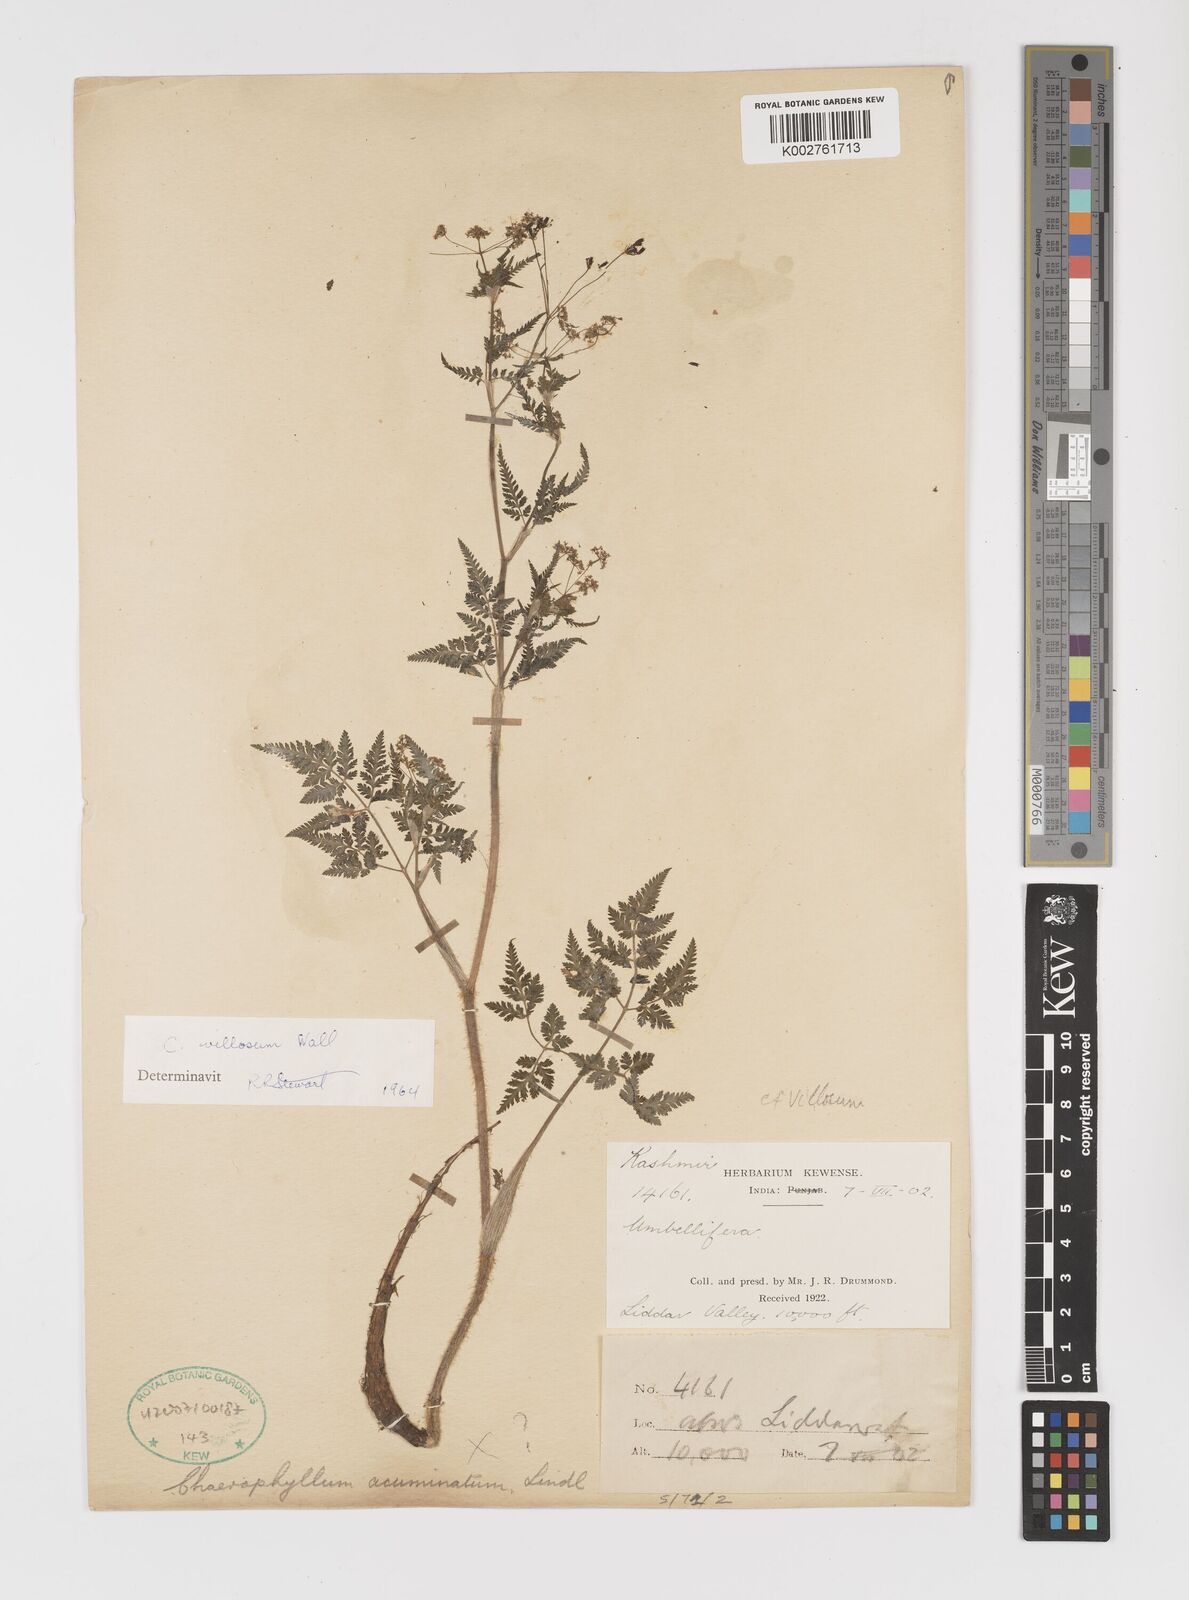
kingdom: Plantae
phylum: Tracheophyta
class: Magnoliopsida
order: Apiales
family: Apiaceae
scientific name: Apiaceae
